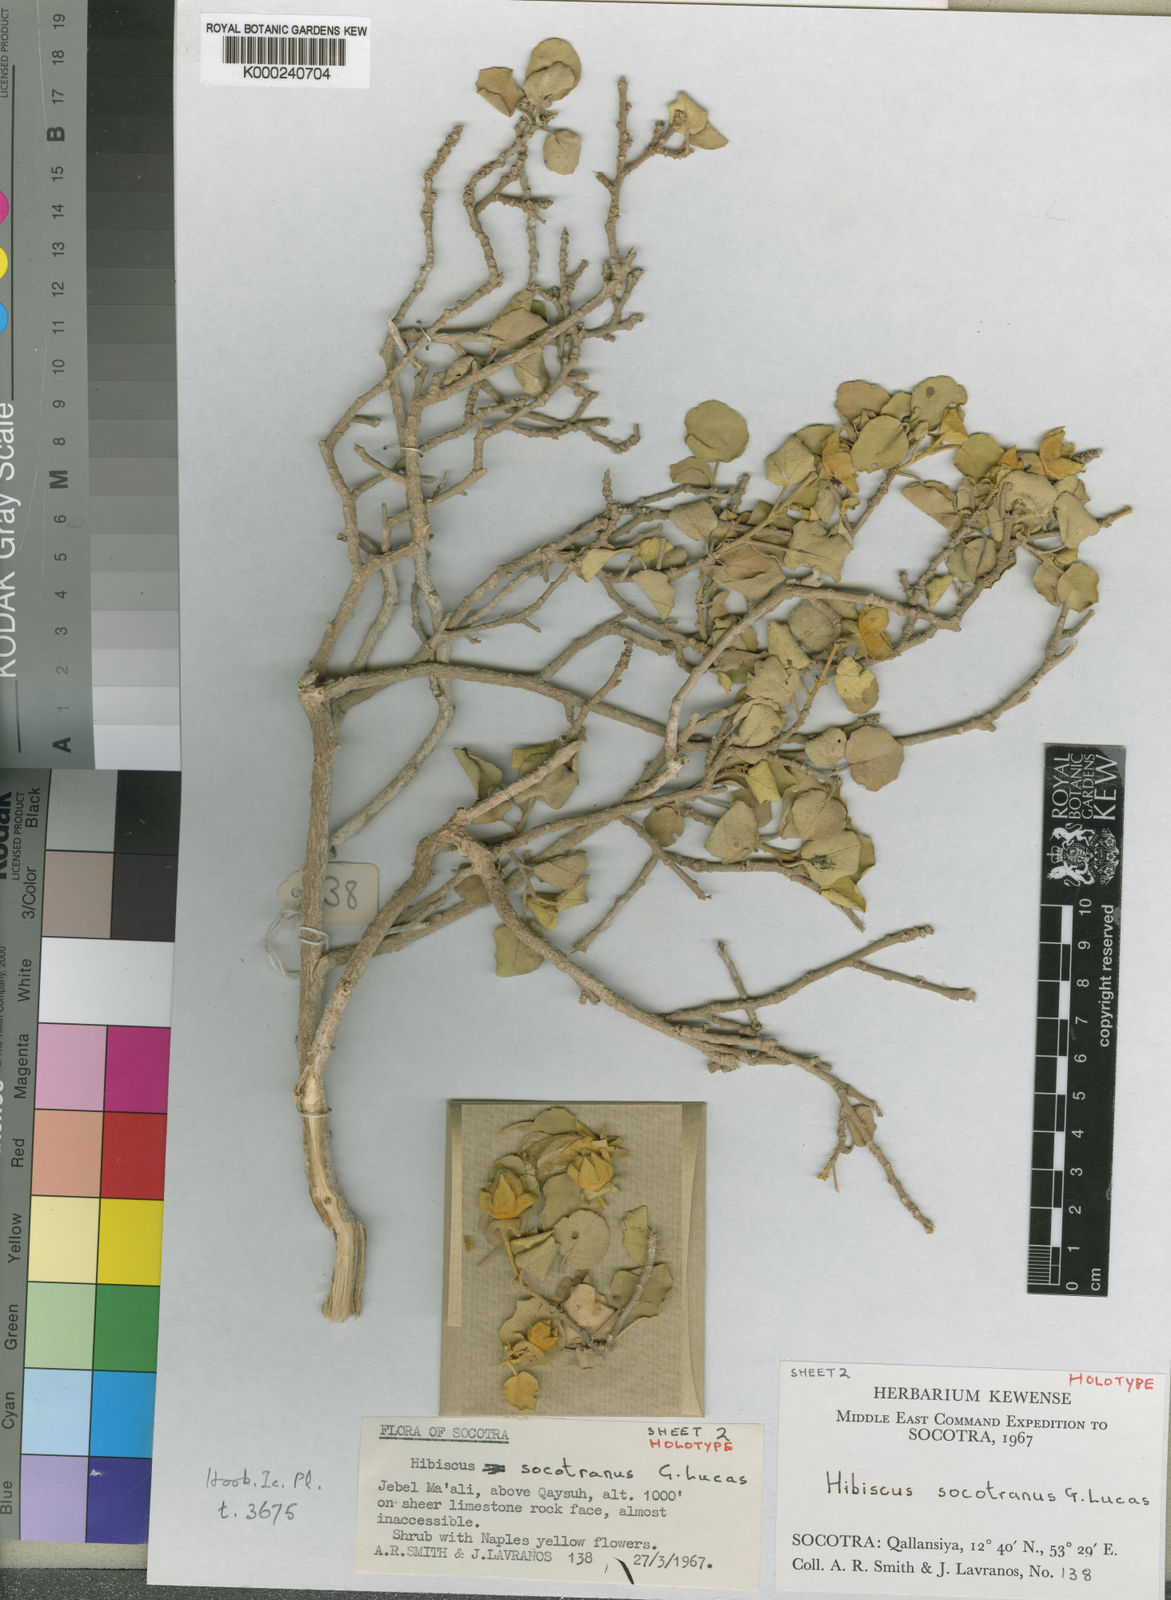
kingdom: Plantae
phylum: Tracheophyta
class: Magnoliopsida
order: Malvales
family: Malvaceae
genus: Hibiscus
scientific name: Hibiscus socotranus
